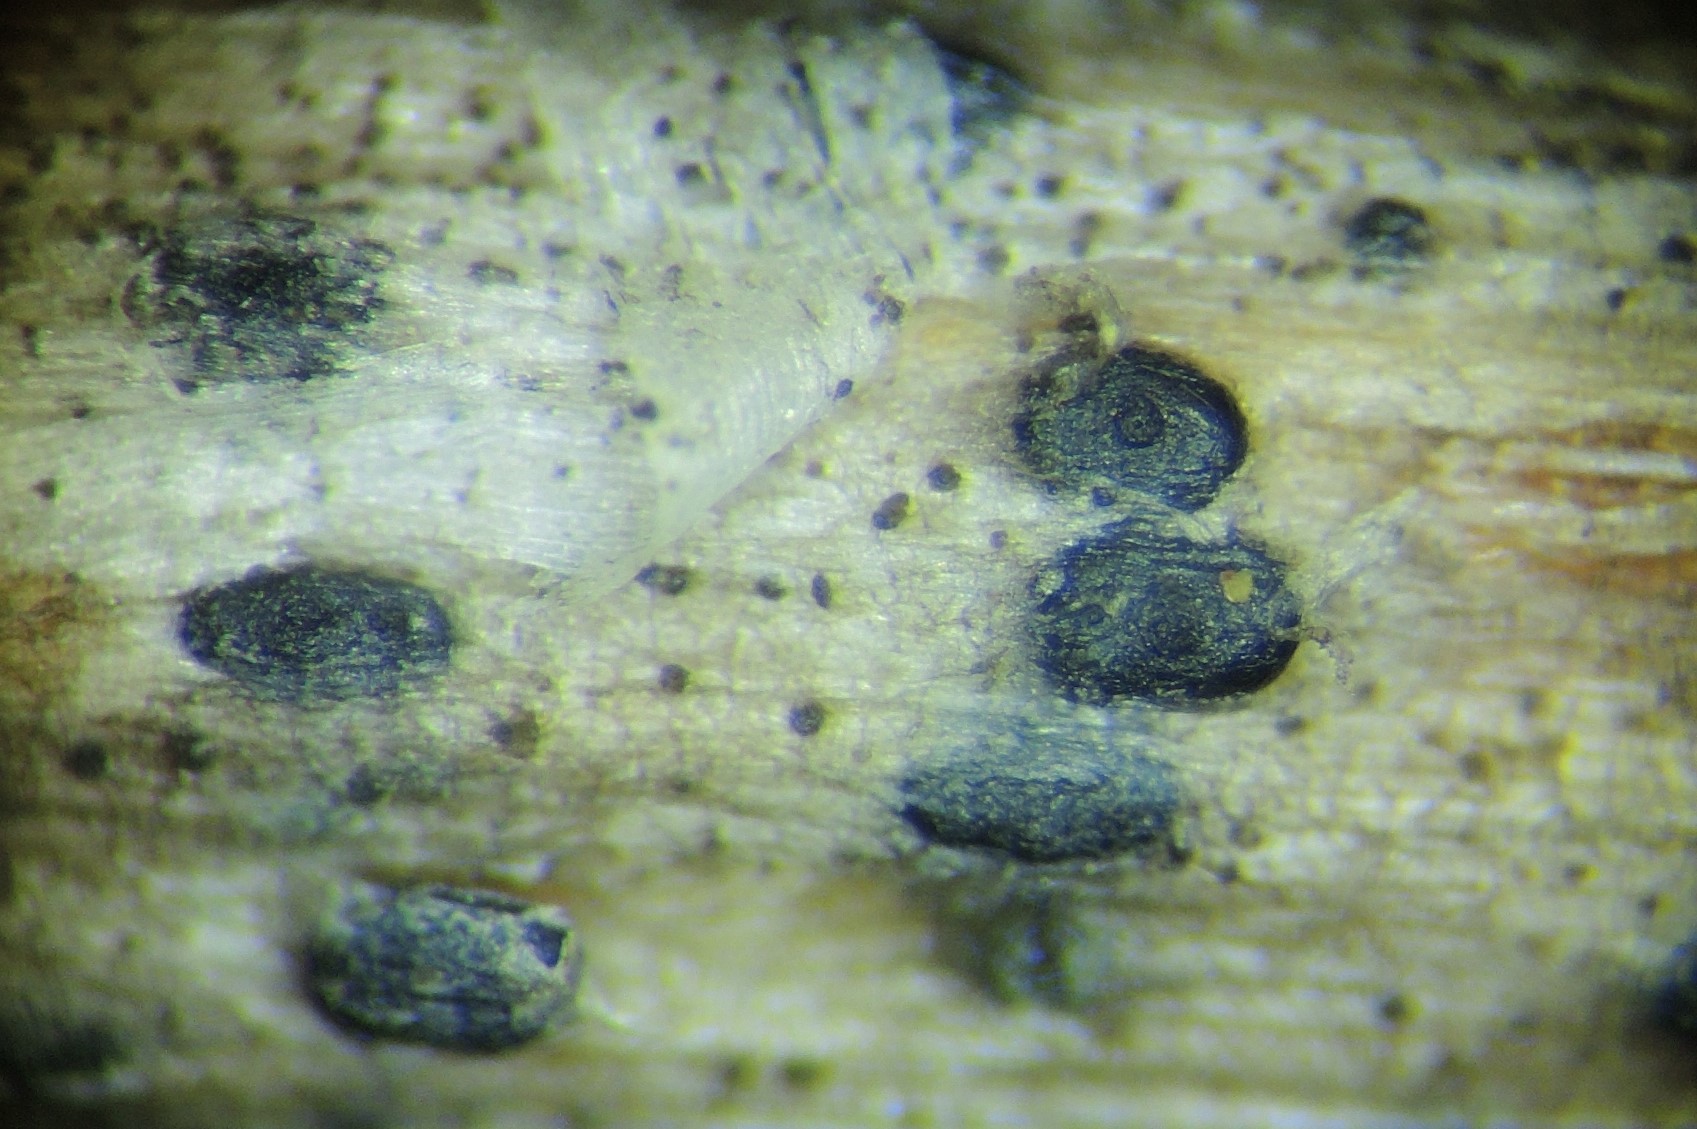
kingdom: Fungi
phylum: Ascomycota
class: Dothideomycetes
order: Pleosporales
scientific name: Pleosporales
